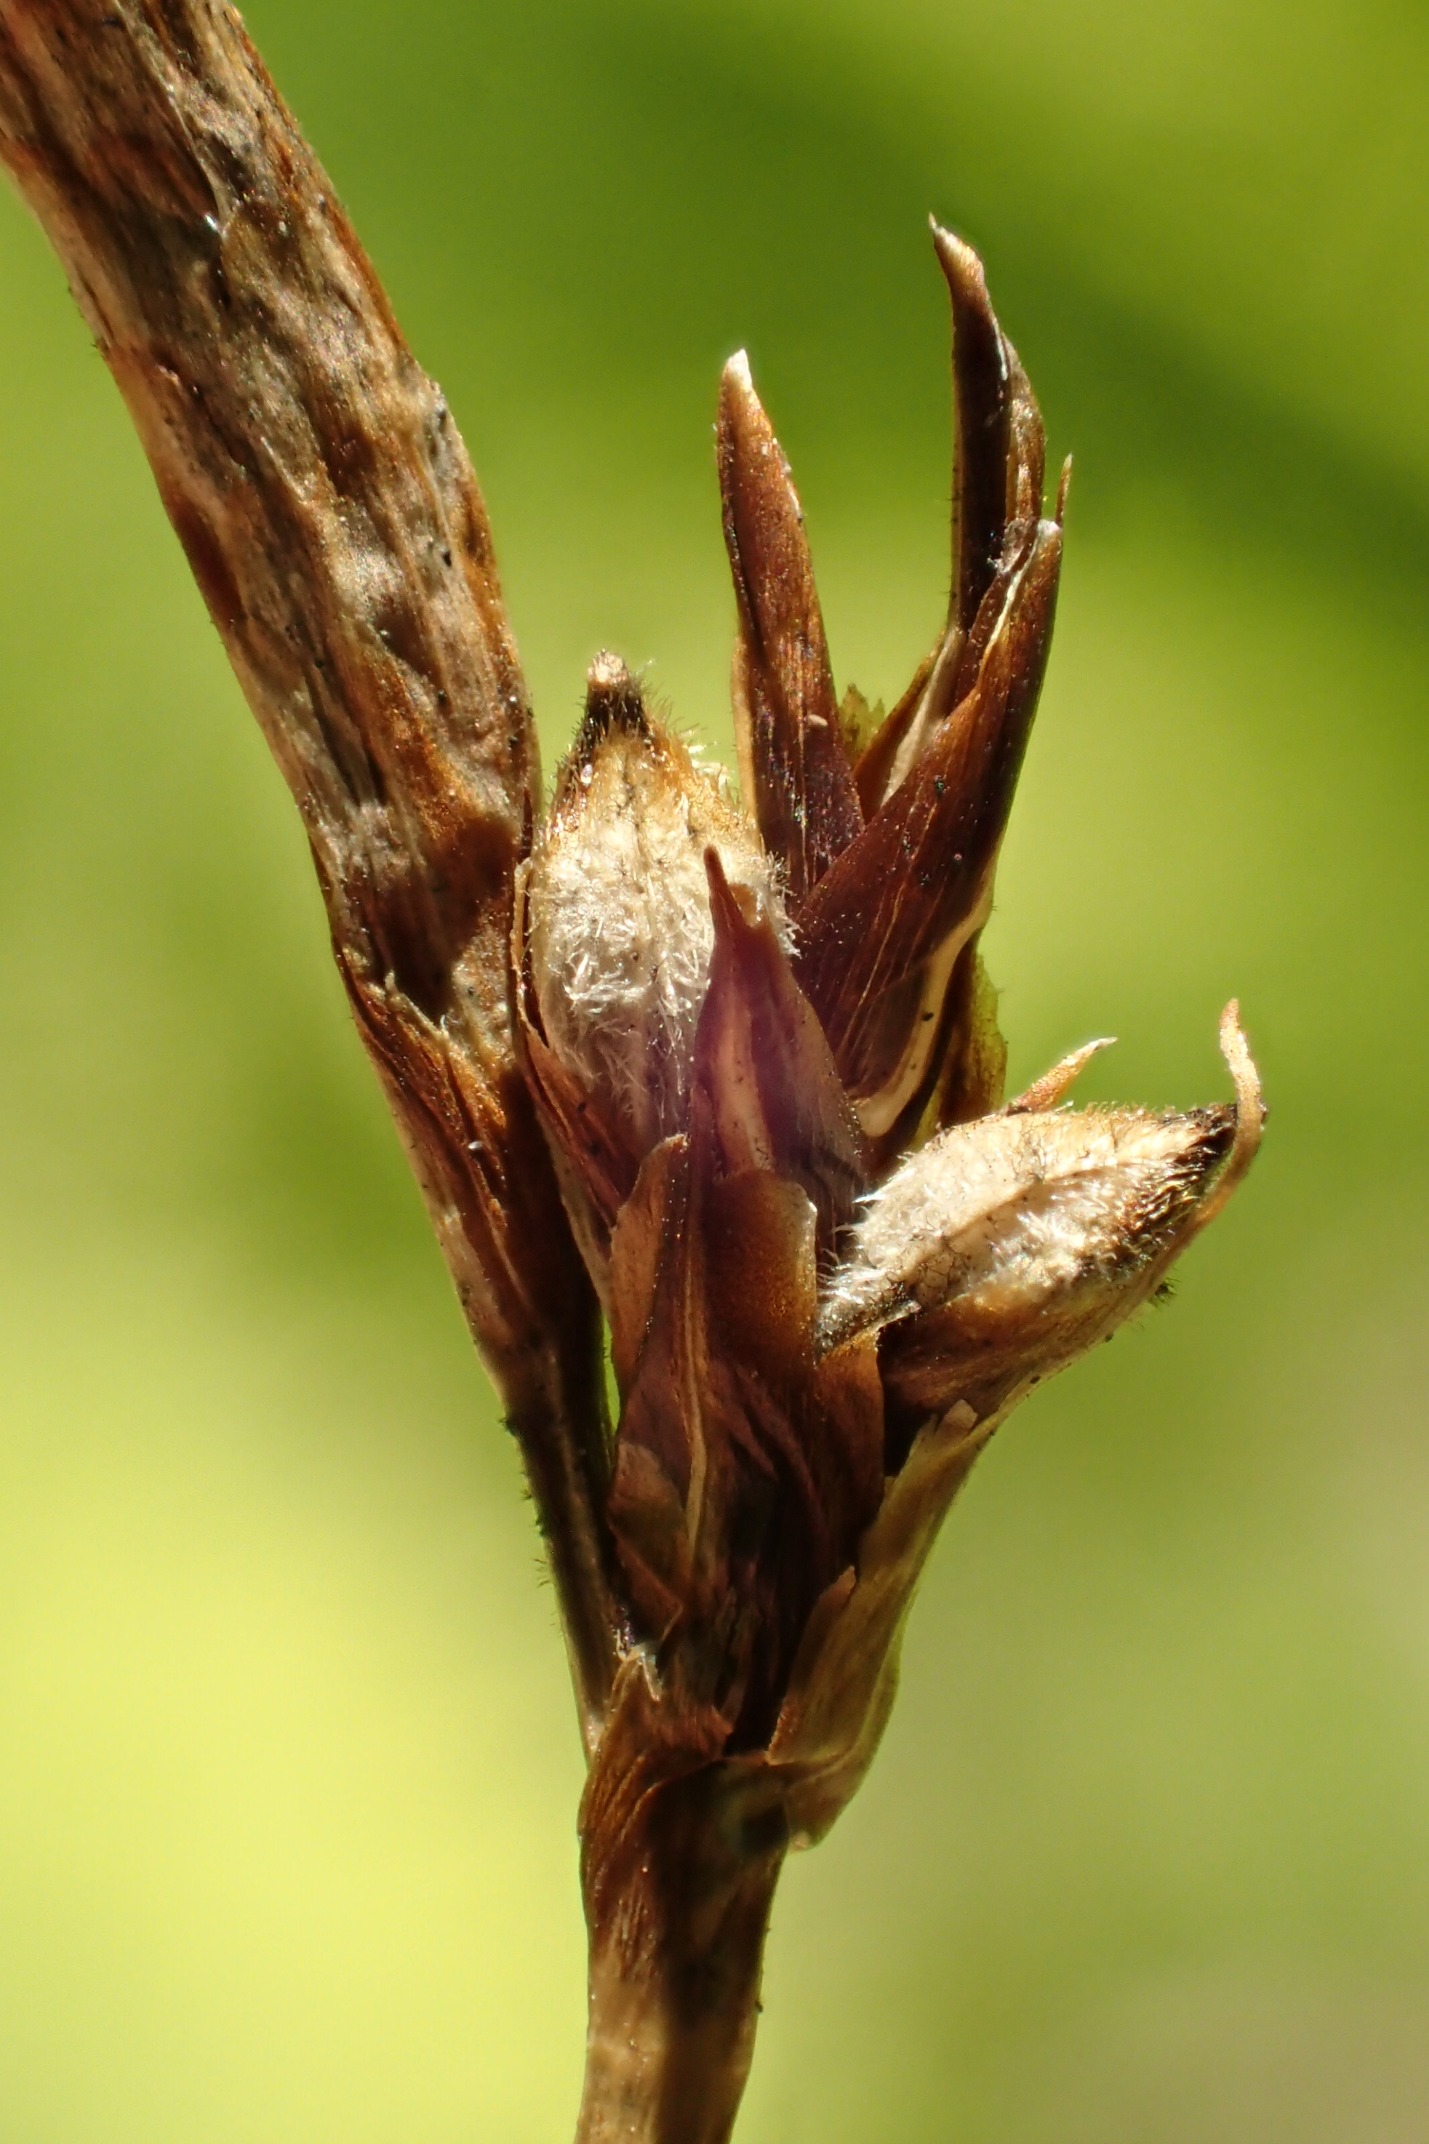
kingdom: Plantae
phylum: Tracheophyta
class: Liliopsida
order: Poales
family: Cyperaceae
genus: Carex
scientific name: Carex montana
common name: Bakke-star
